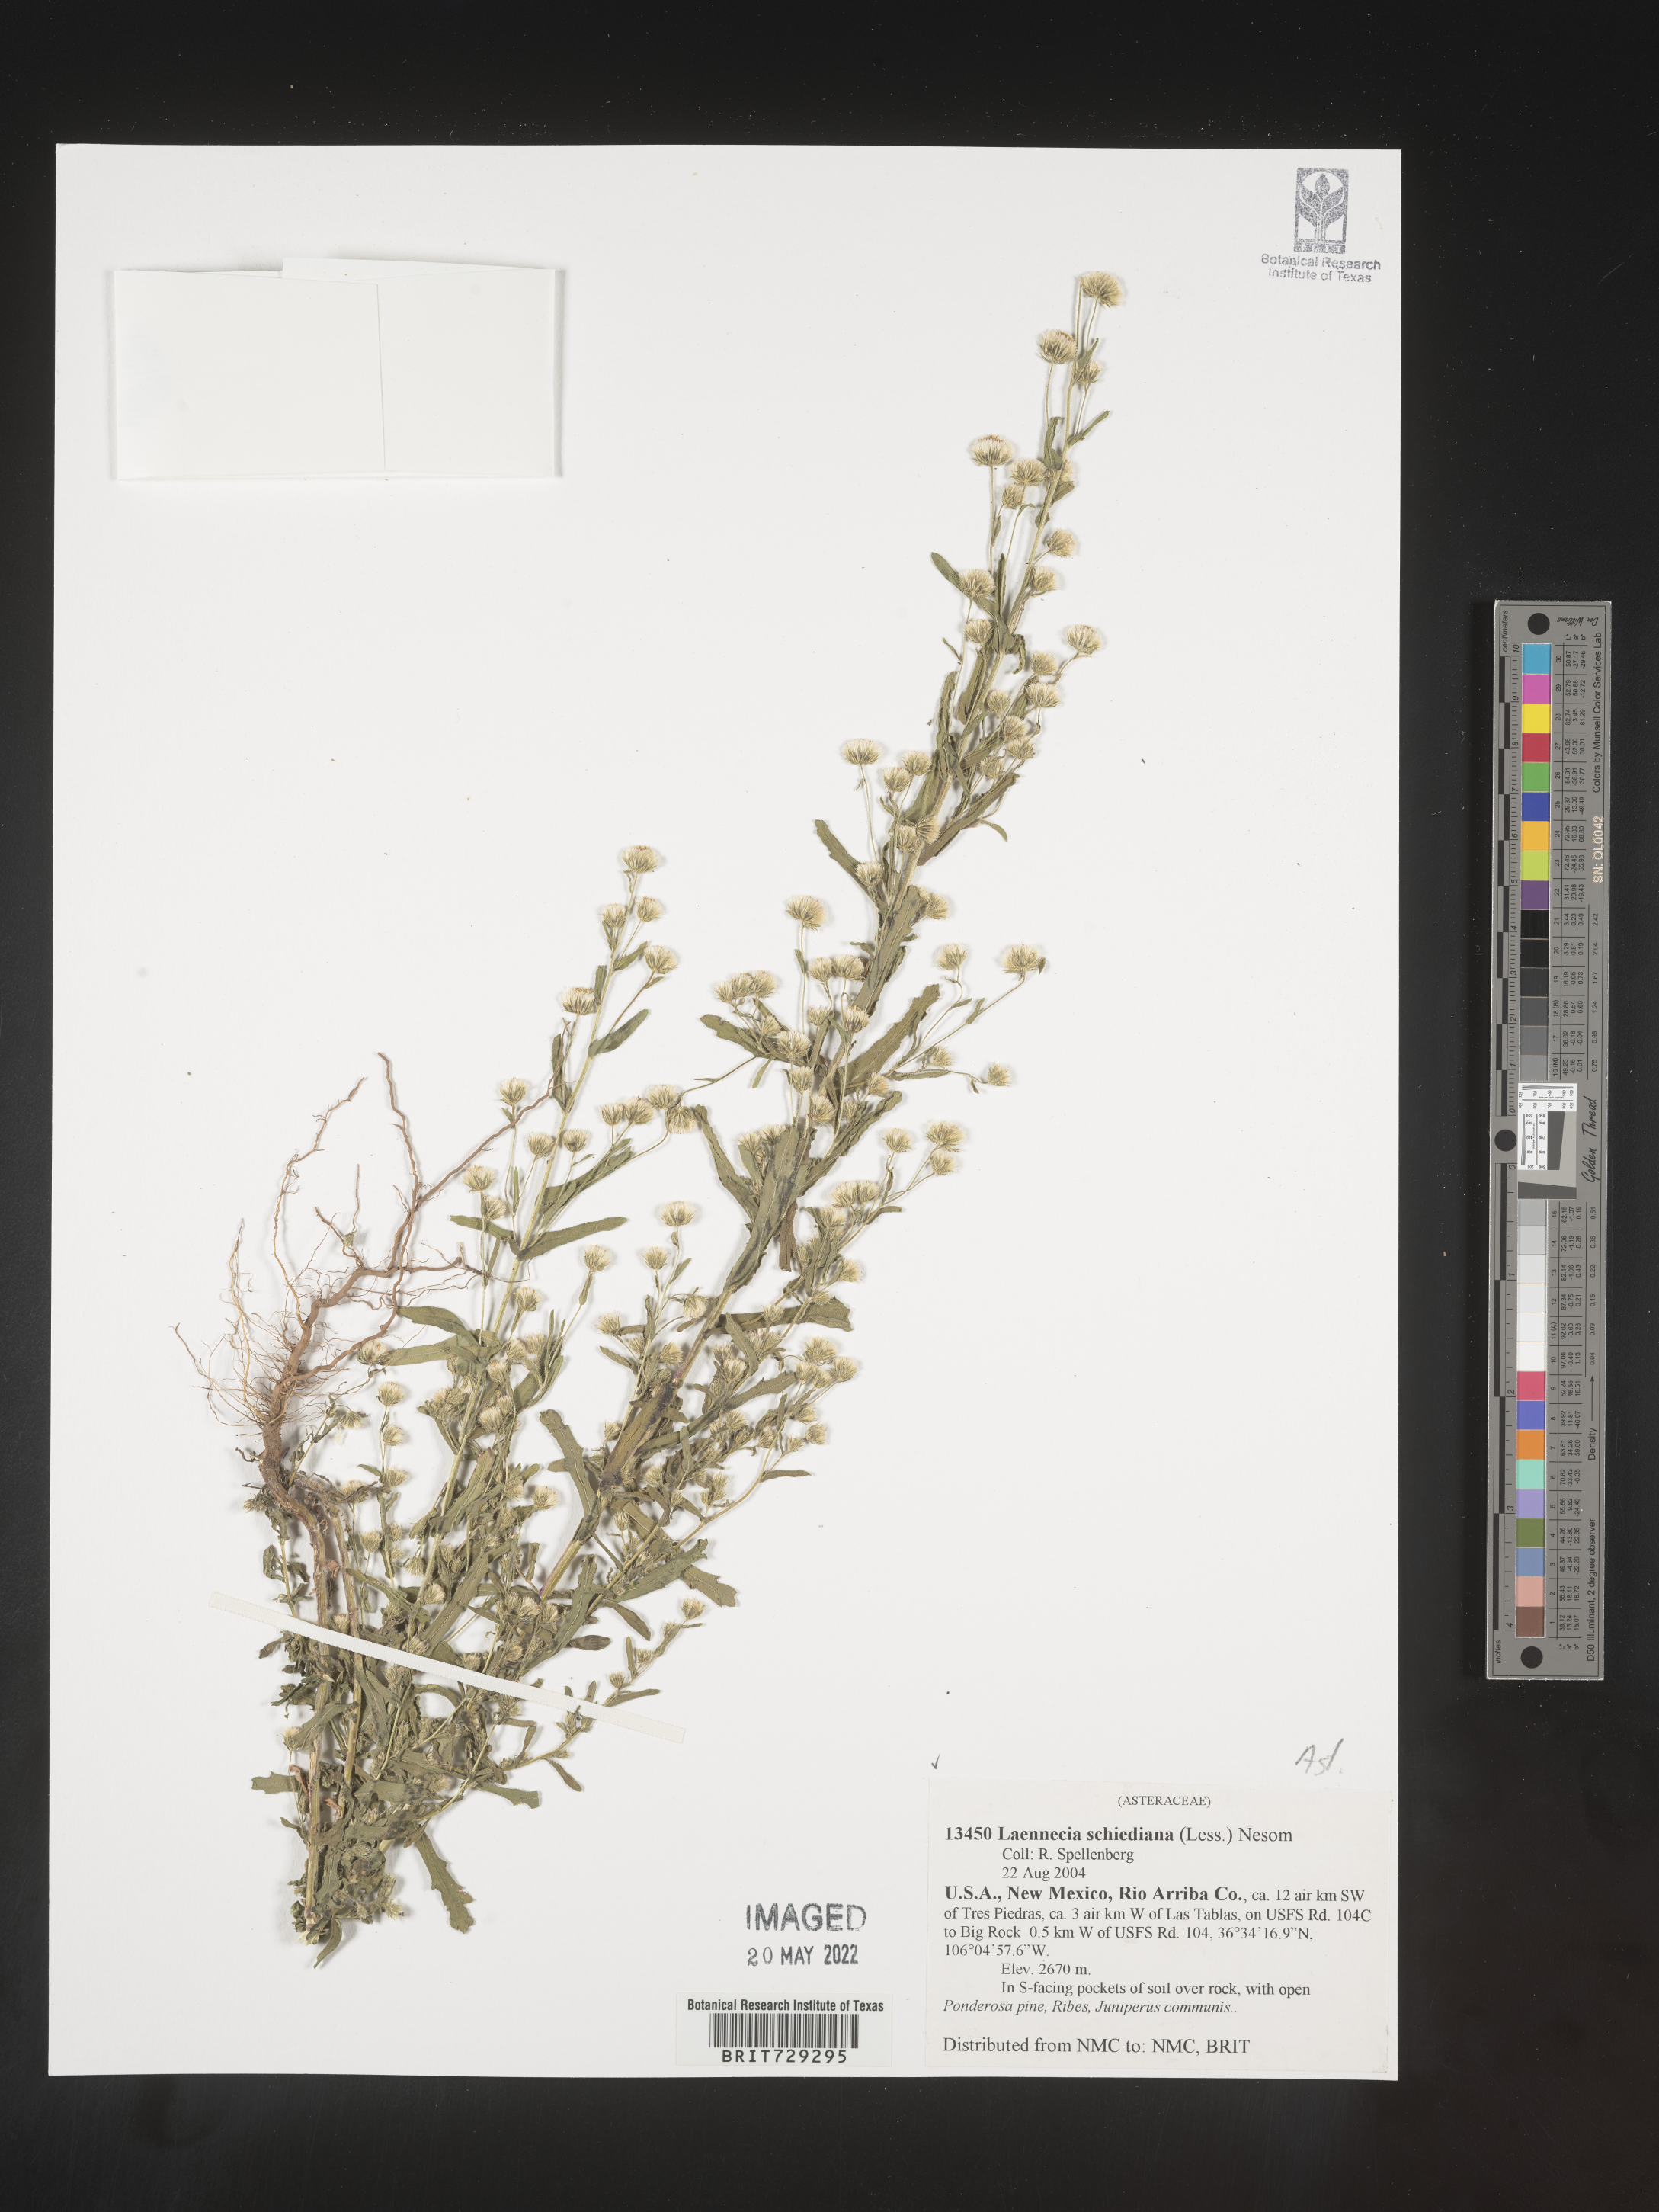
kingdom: Plantae
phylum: Tracheophyta
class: Magnoliopsida
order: Asterales
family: Asteraceae
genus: Laennecia
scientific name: Laennecia schiedeana
